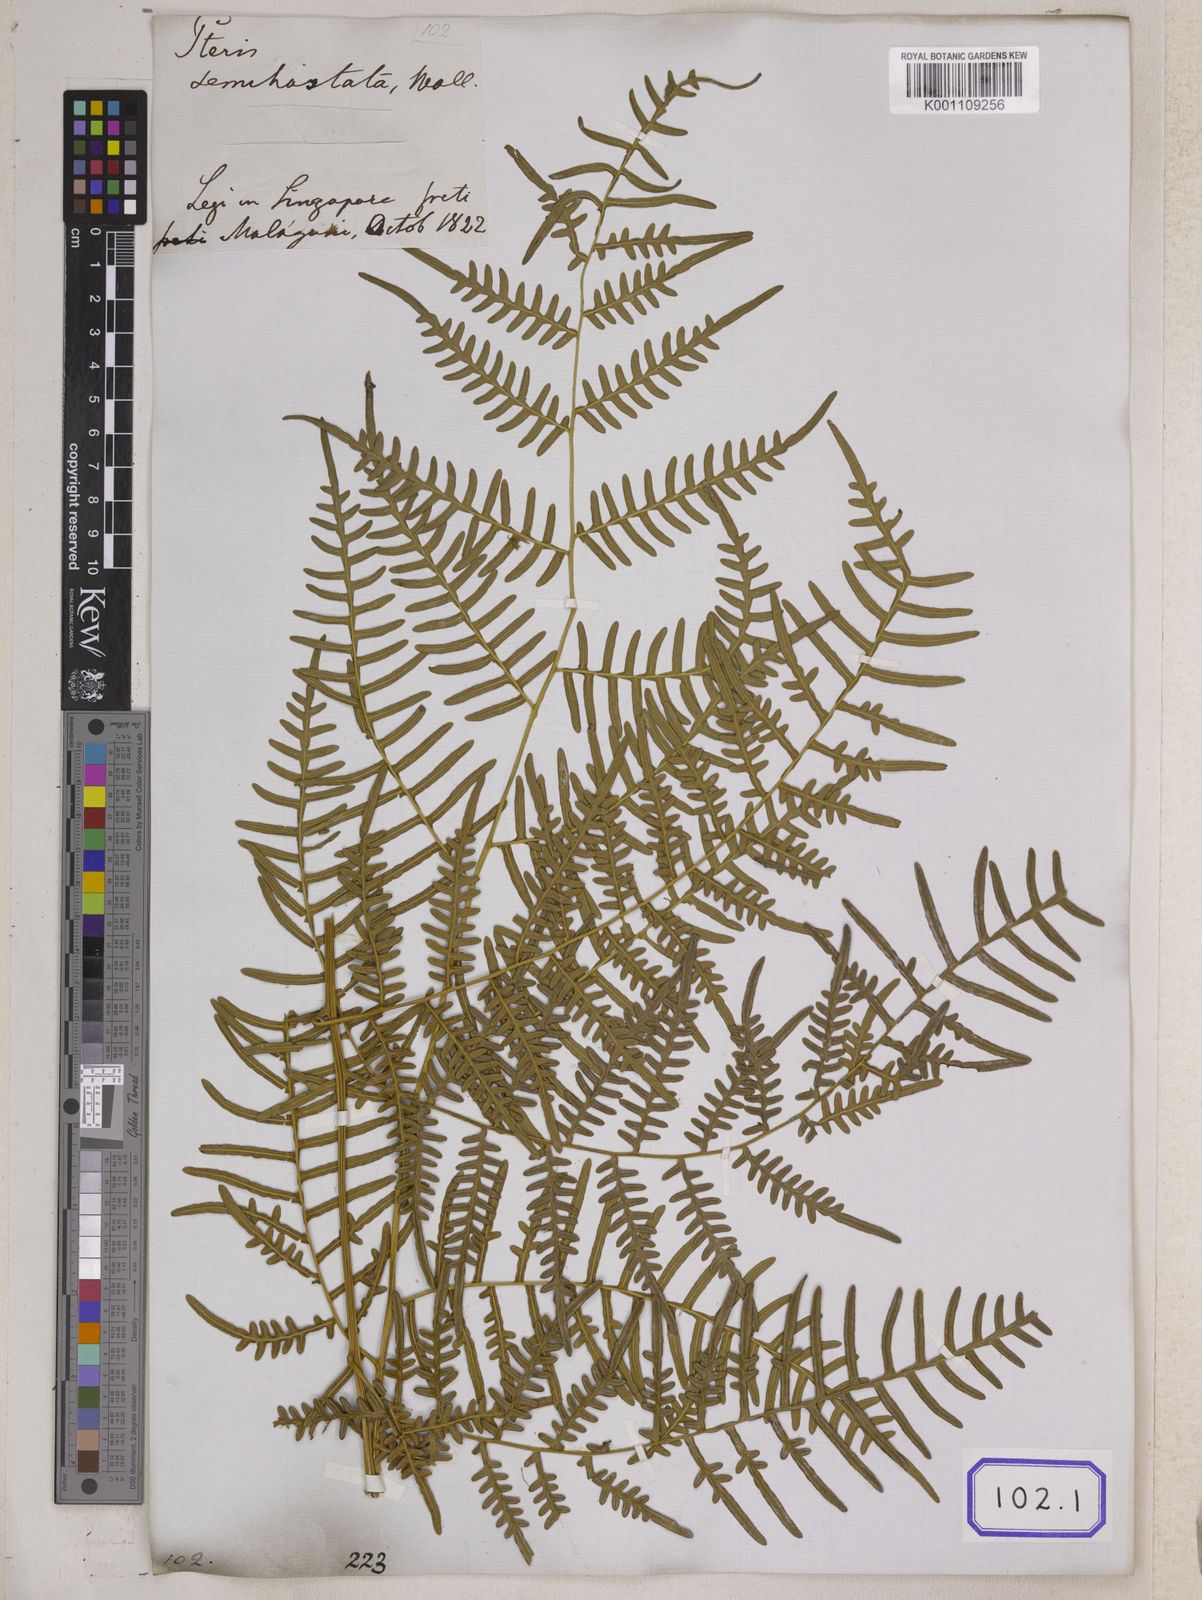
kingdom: Plantae
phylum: Tracheophyta
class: Polypodiopsida
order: Polypodiales
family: Dennstaedtiaceae
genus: Pteridium
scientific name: Pteridium rostratum
